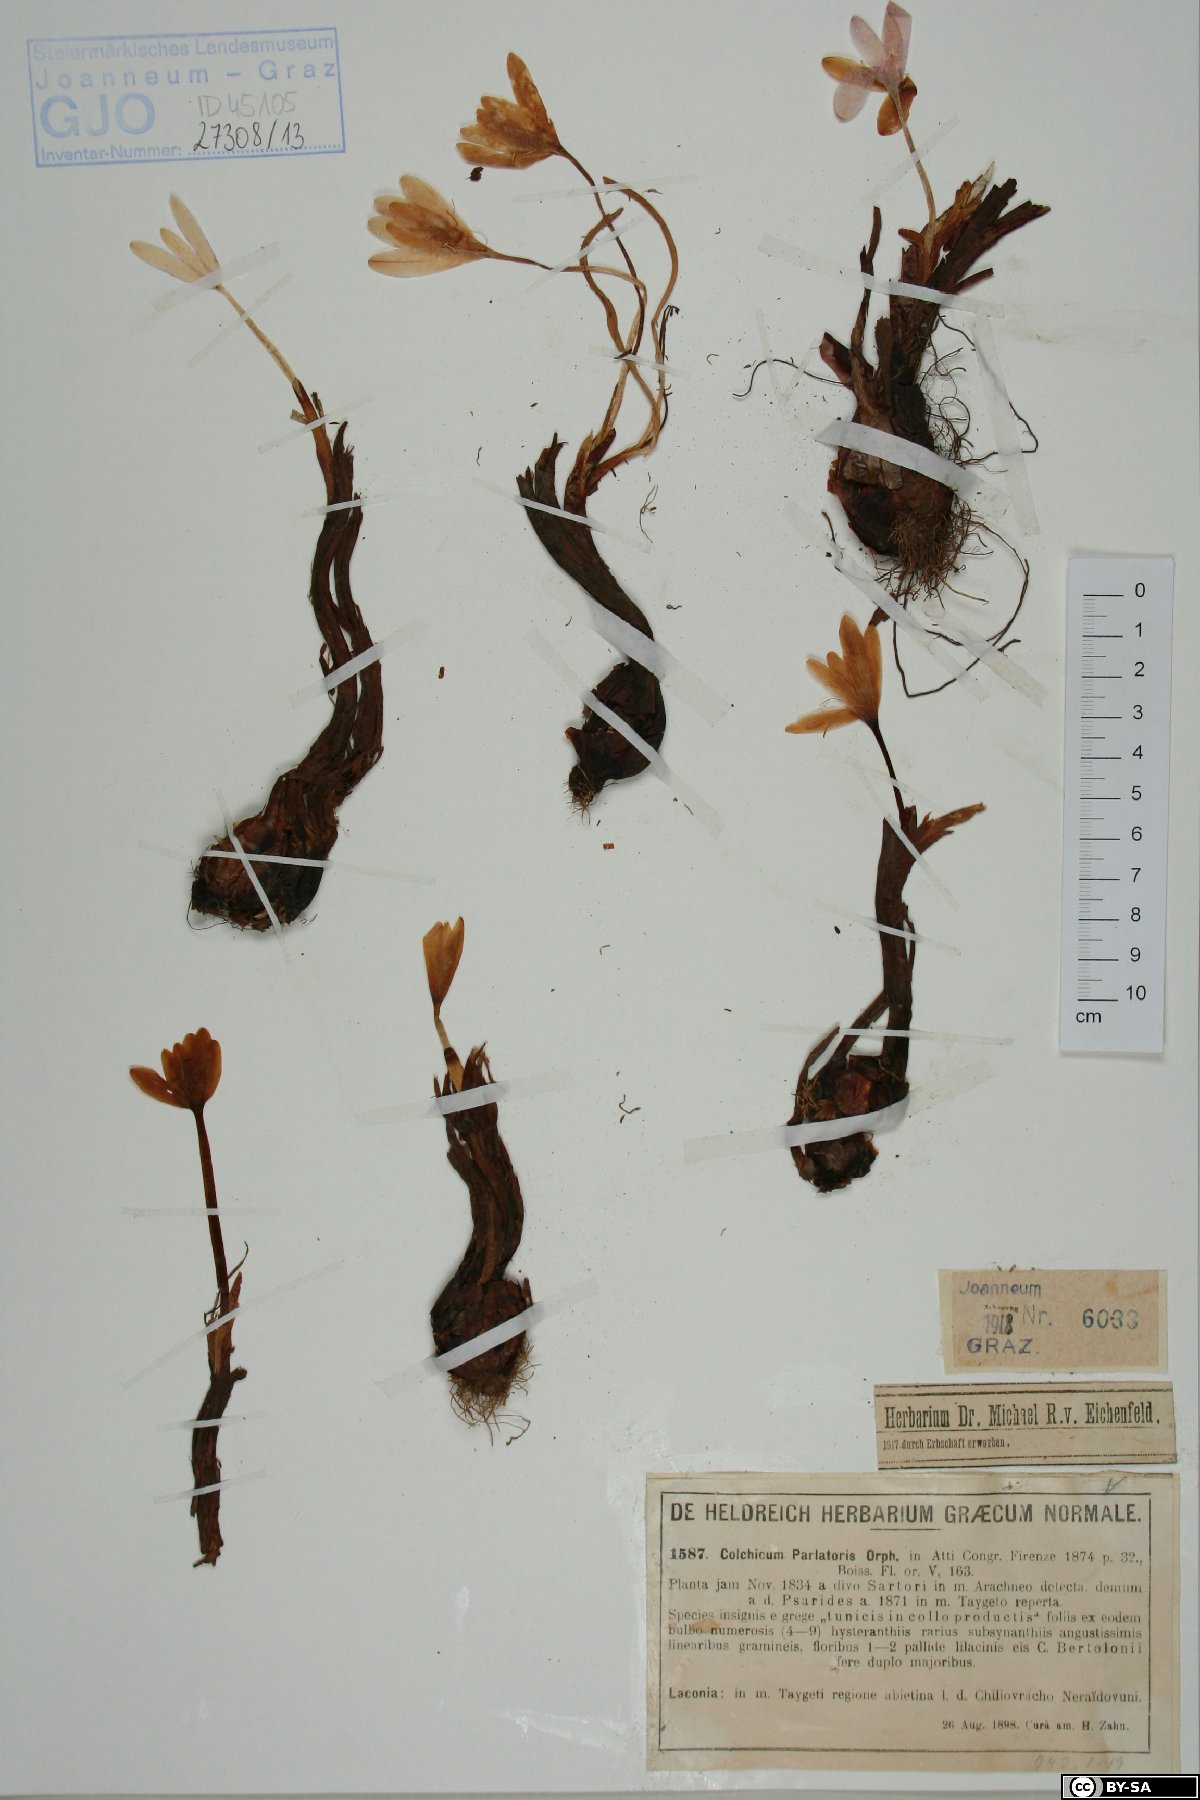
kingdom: Plantae
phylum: Tracheophyta
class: Liliopsida
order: Liliales
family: Colchicaceae
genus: Colchicum
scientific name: Colchicum parlatoris
